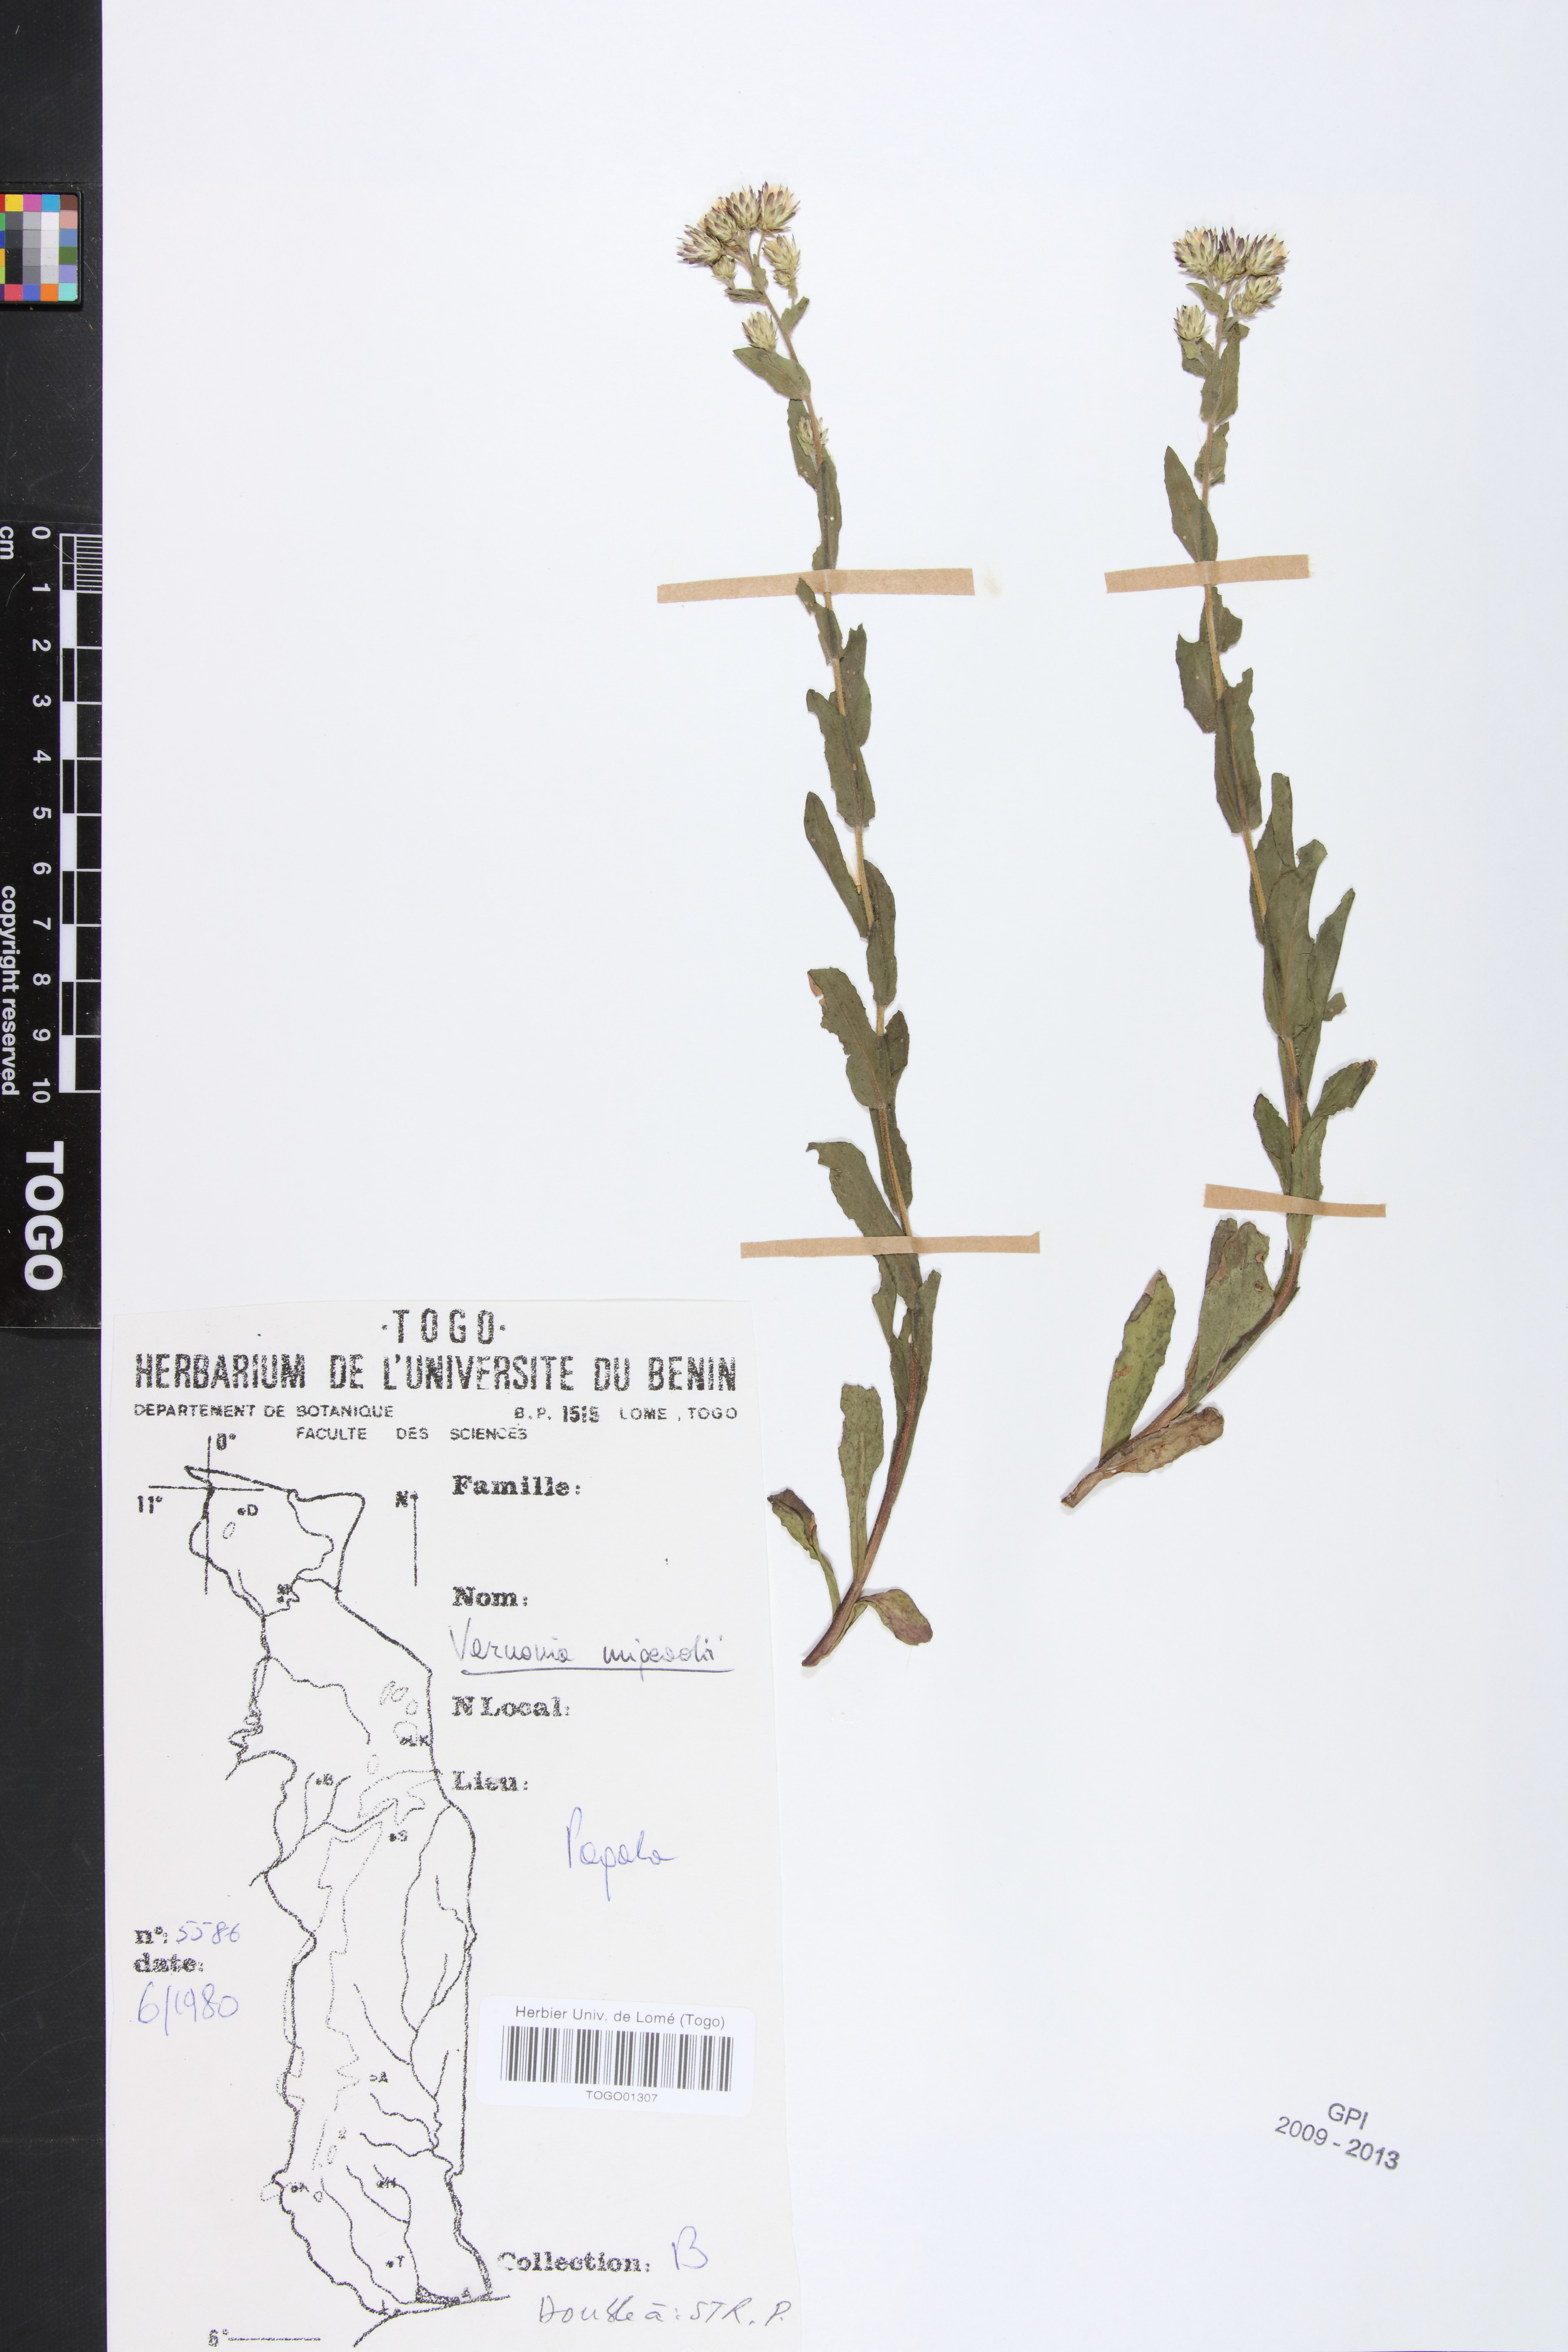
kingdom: Plantae
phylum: Tracheophyta
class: Magnoliopsida
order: Asterales
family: Asteraceae
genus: Vernoniastrum
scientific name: Vernoniastrum migeodii
